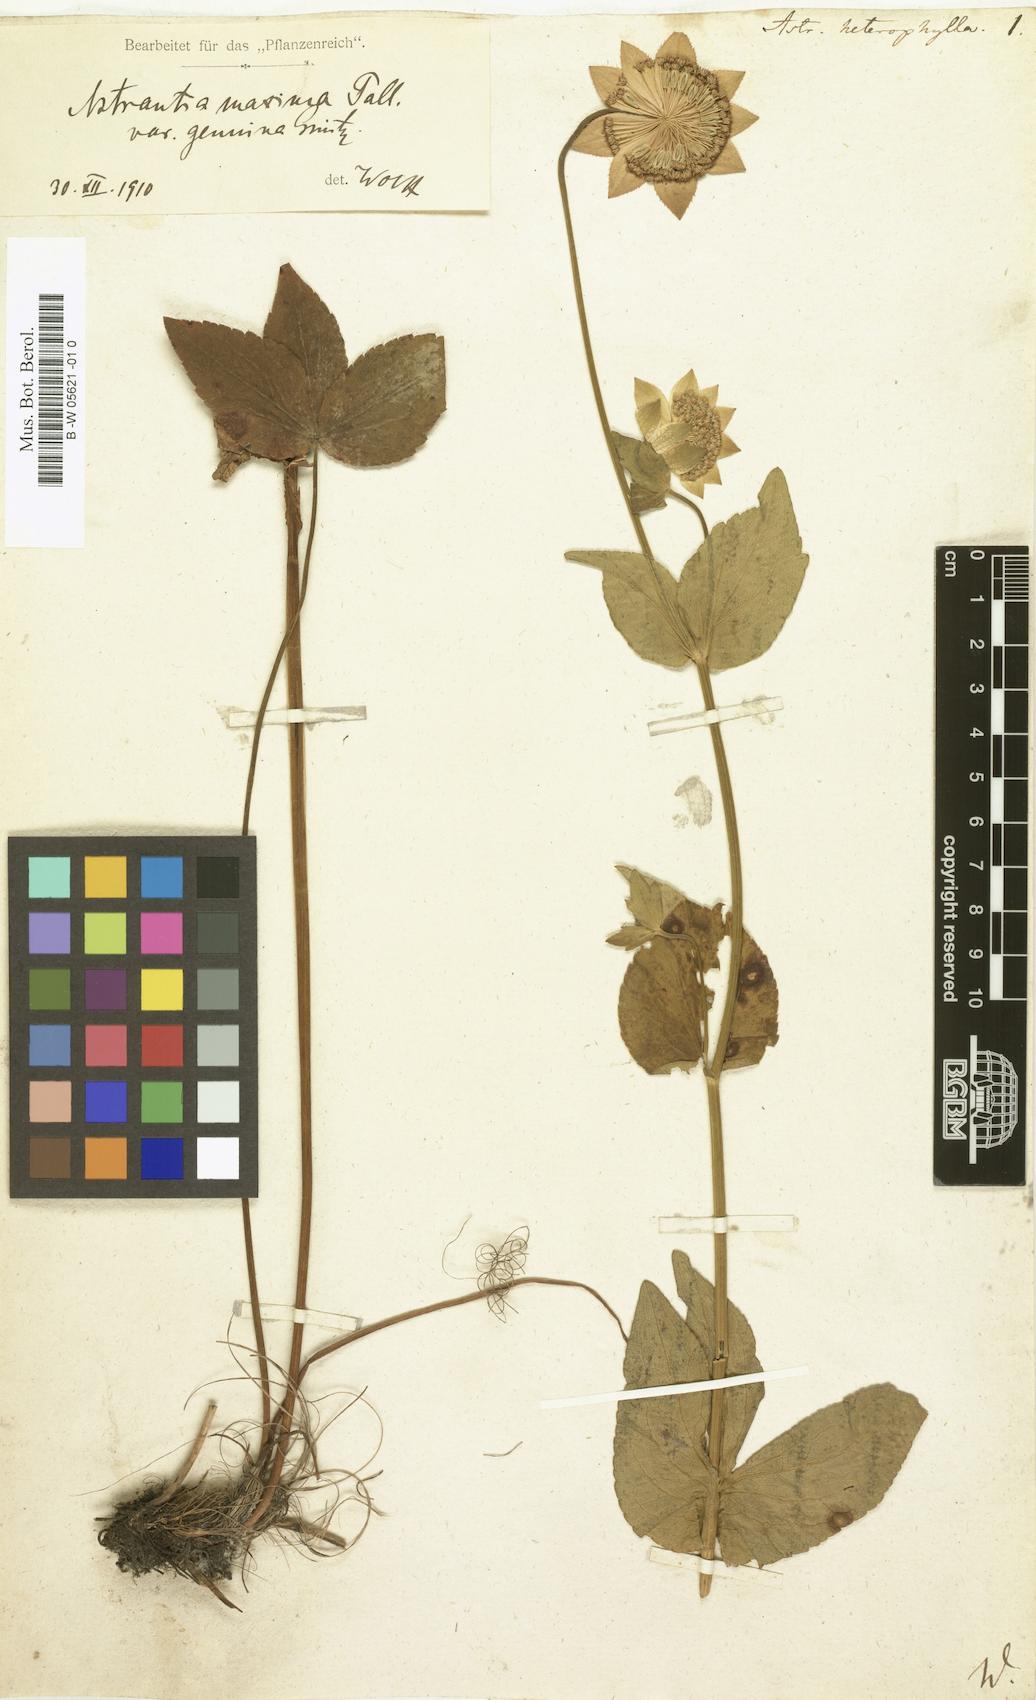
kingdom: Plantae
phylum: Tracheophyta
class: Magnoliopsida
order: Apiales
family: Apiaceae
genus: Astrantia
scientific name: Astrantia maxima
